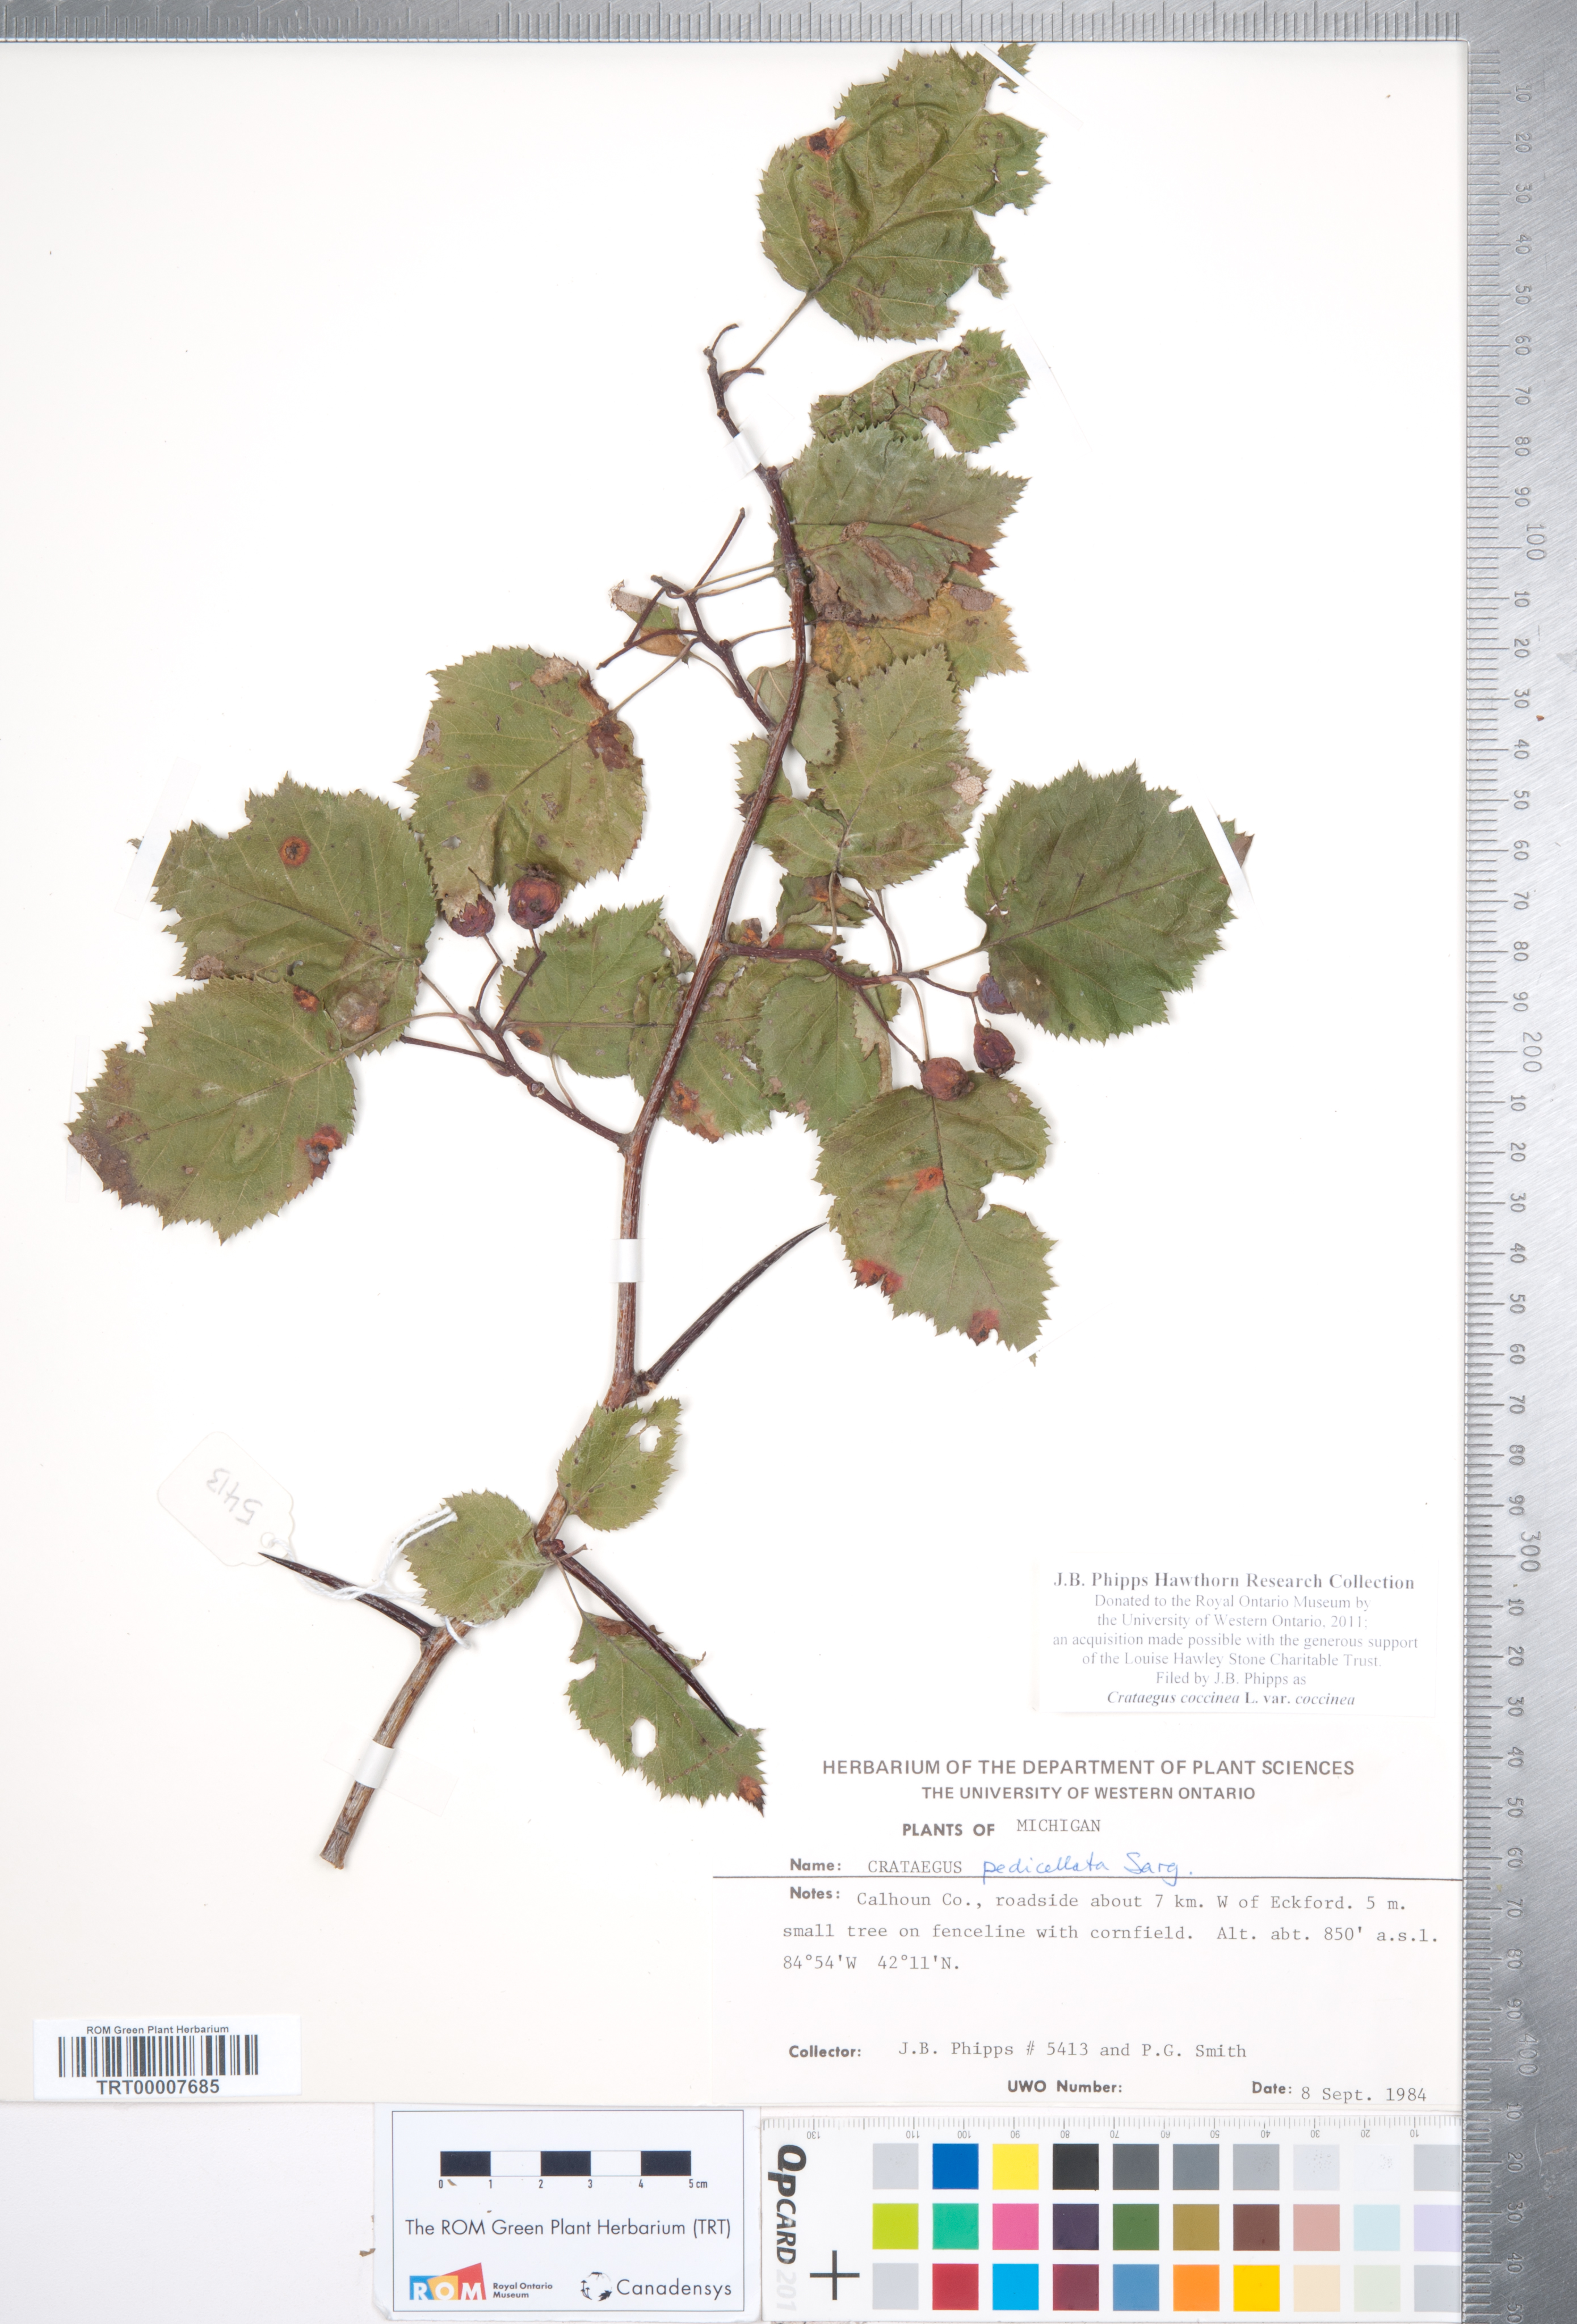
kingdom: Plantae
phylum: Tracheophyta
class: Magnoliopsida
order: Rosales
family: Rosaceae
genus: Crataegus
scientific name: Crataegus coccinea
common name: Scarlet hawthorn
